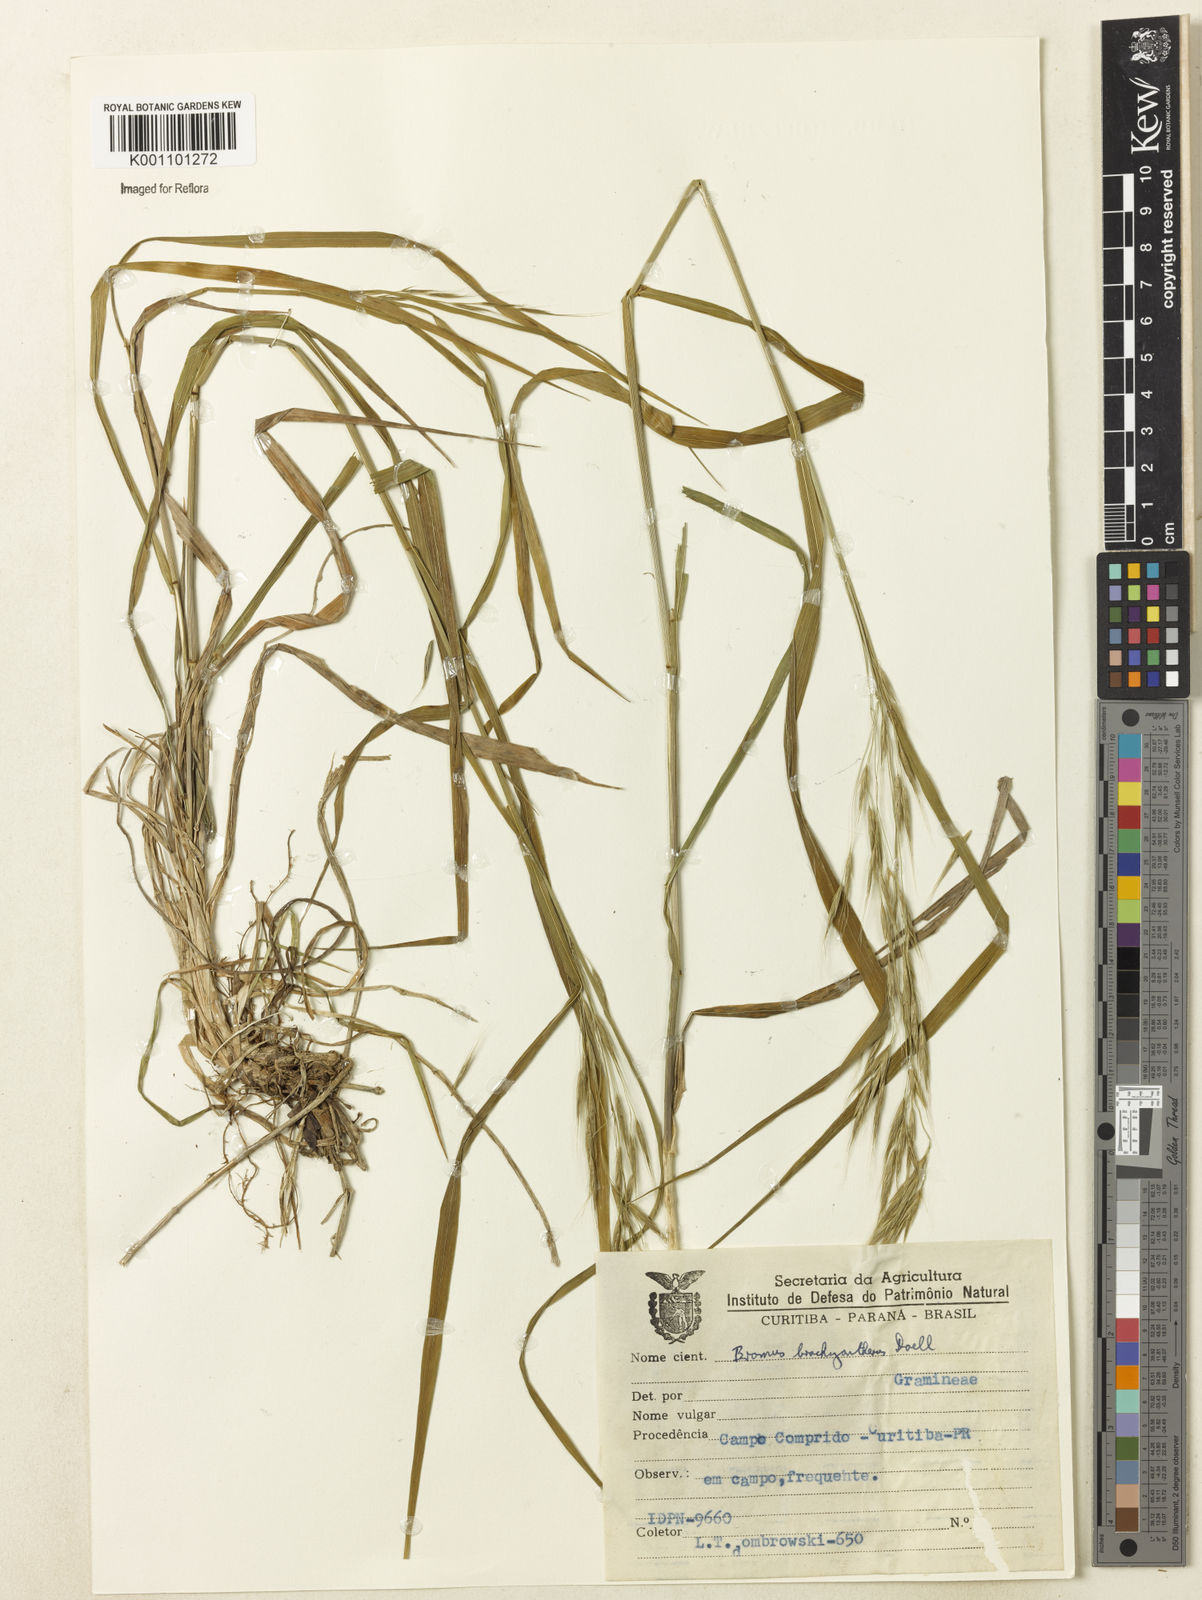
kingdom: Plantae
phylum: Tracheophyta
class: Liliopsida
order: Poales
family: Poaceae
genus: Bromus
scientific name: Bromus
